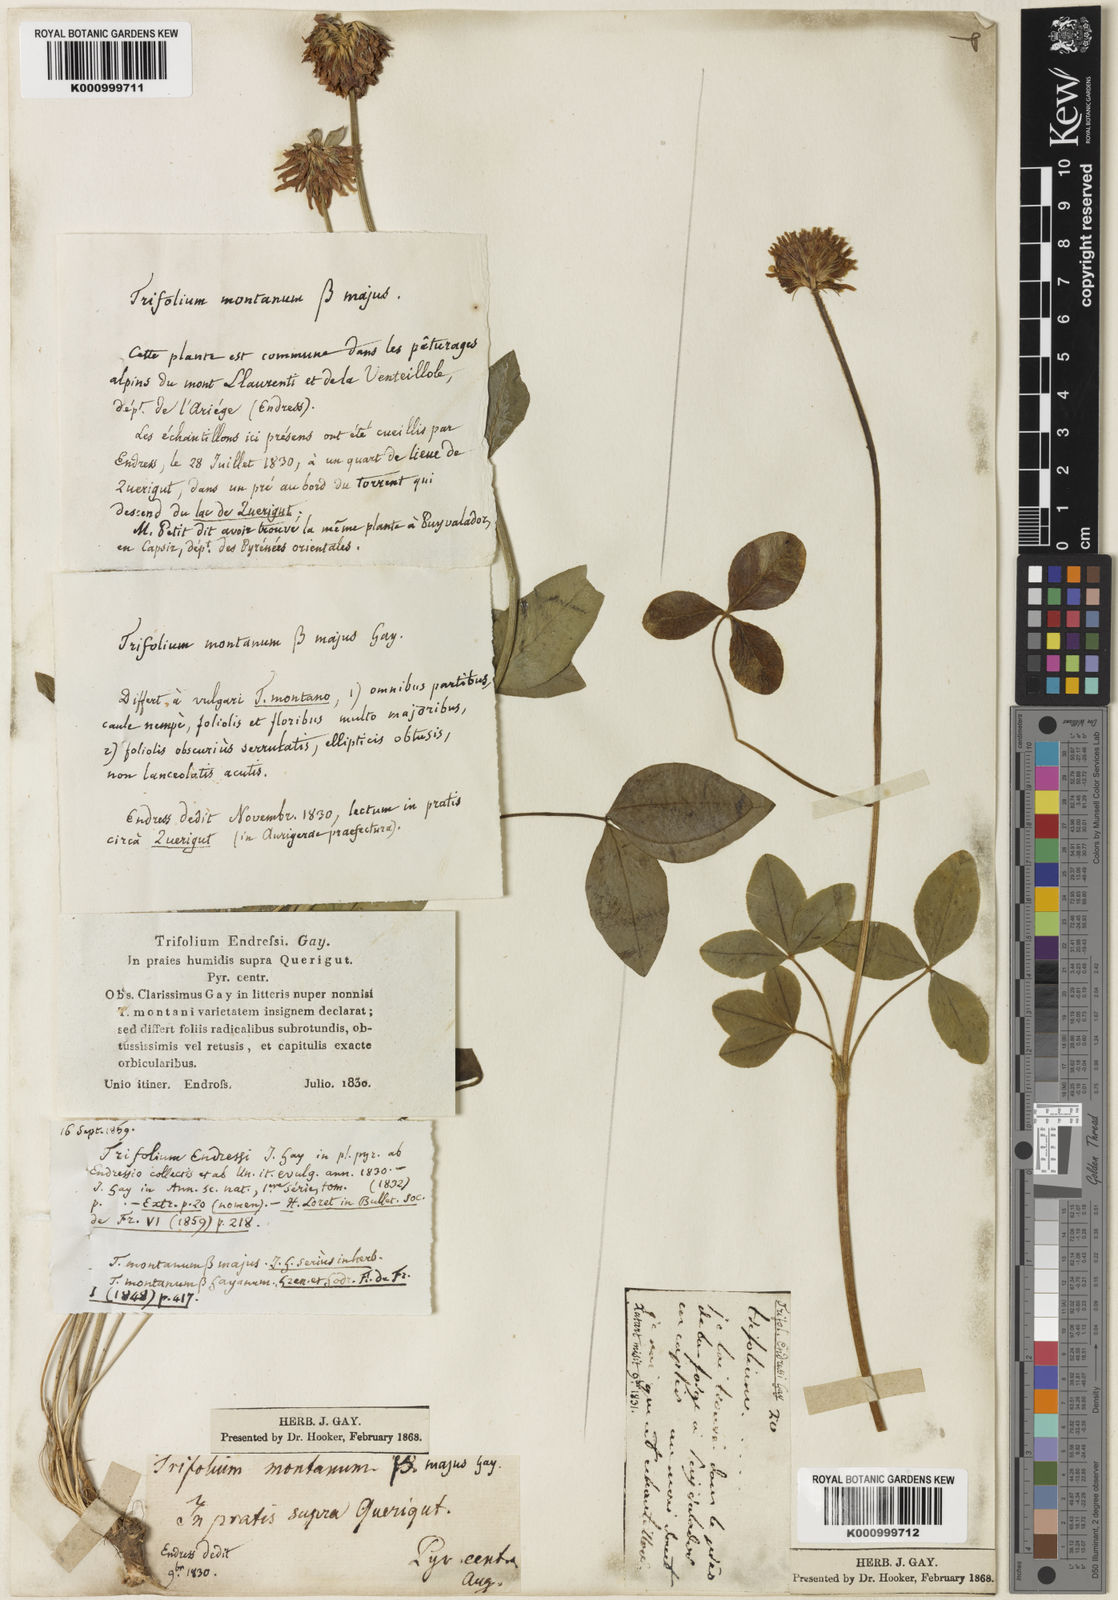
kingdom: Plantae
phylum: Tracheophyta
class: Magnoliopsida
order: Fabales
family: Fabaceae
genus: Trifolium
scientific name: Trifolium montanum
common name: Mountain clover
